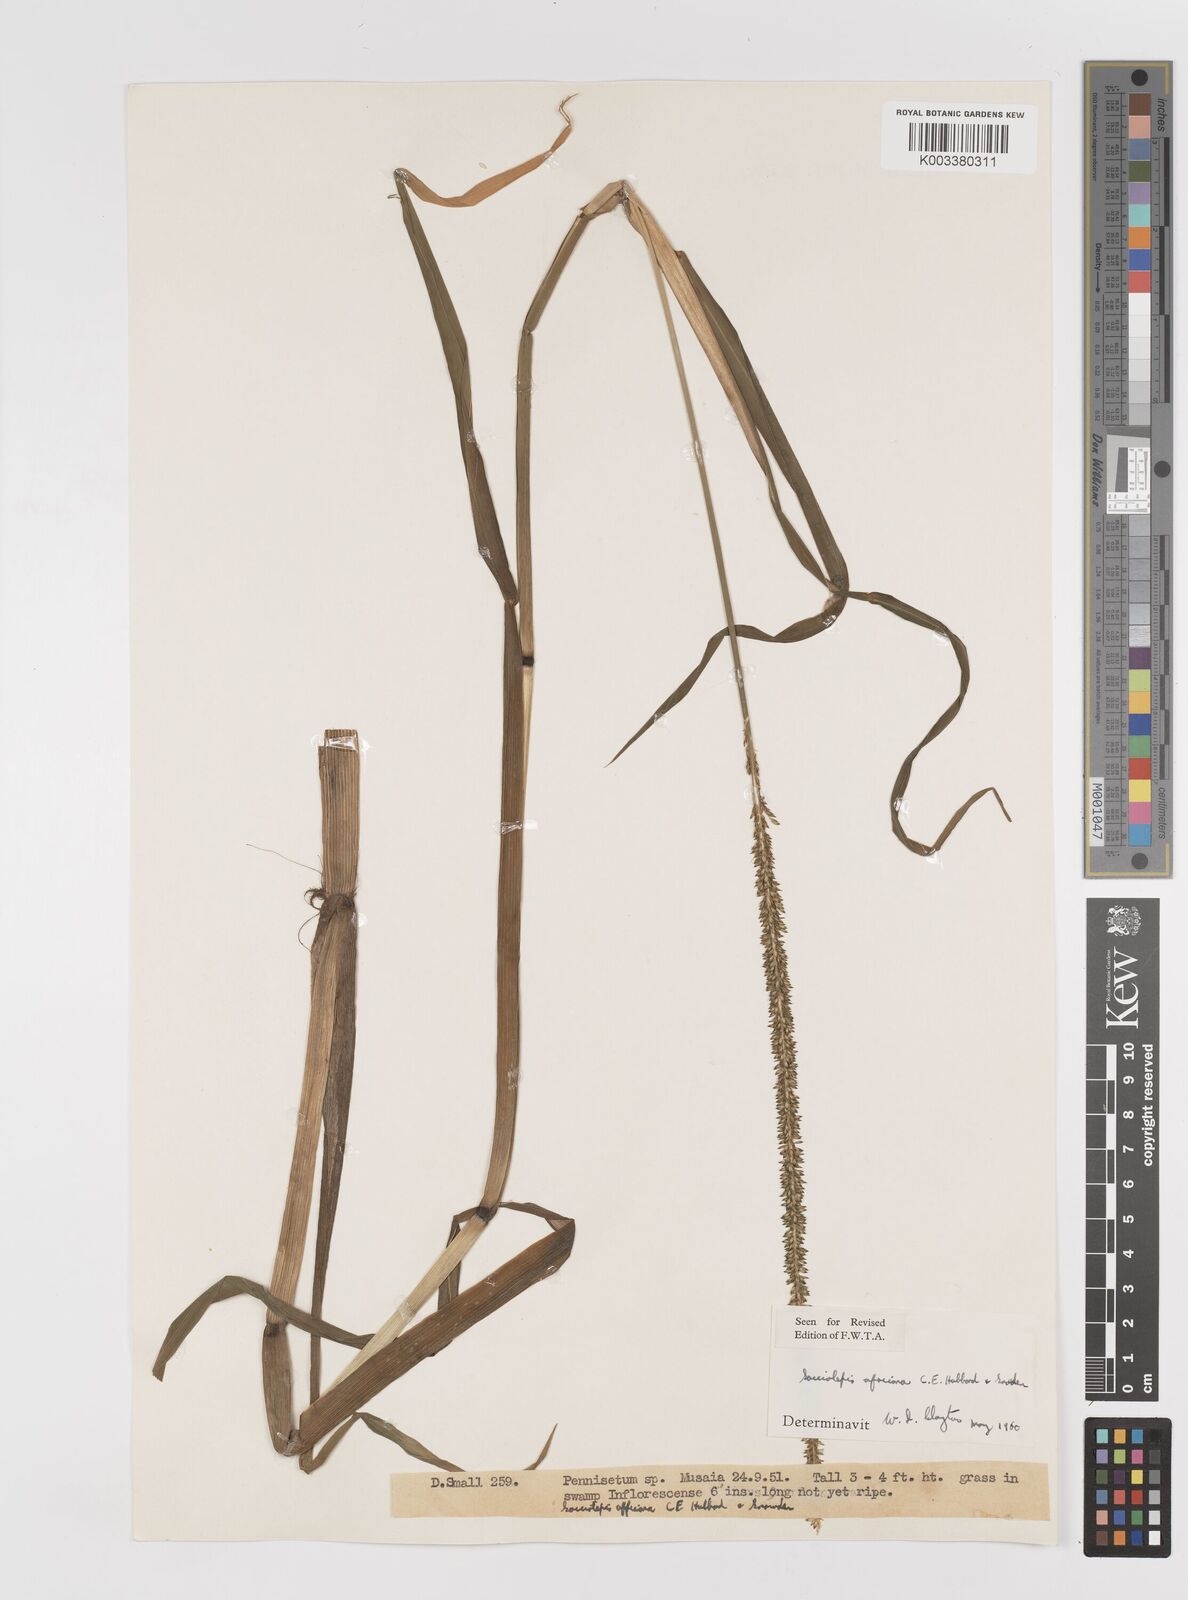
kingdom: Plantae
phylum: Tracheophyta
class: Liliopsida
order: Poales
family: Poaceae
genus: Sacciolepis
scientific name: Sacciolepis africana
